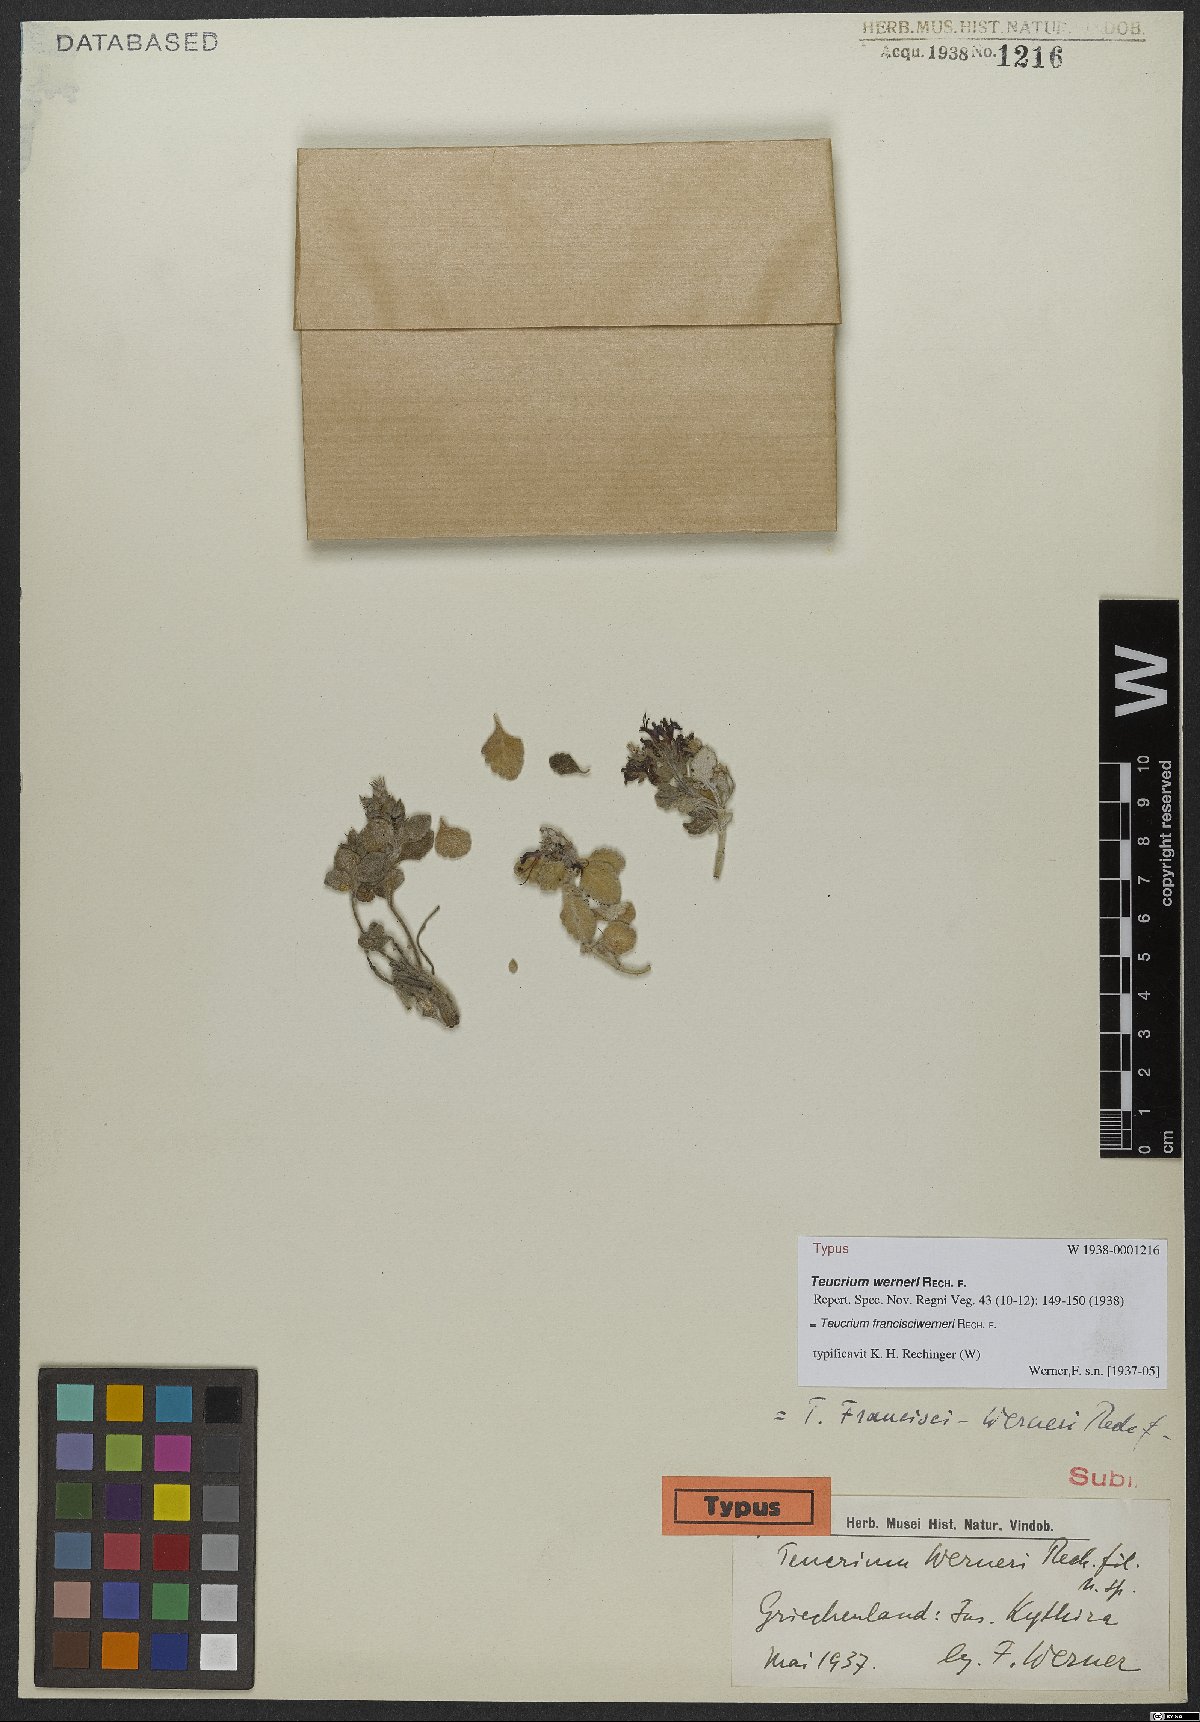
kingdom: Plantae
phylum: Tracheophyta
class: Magnoliopsida
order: Lamiales
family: Lamiaceae
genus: Teucrium
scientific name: Teucrium francisci-werneri
